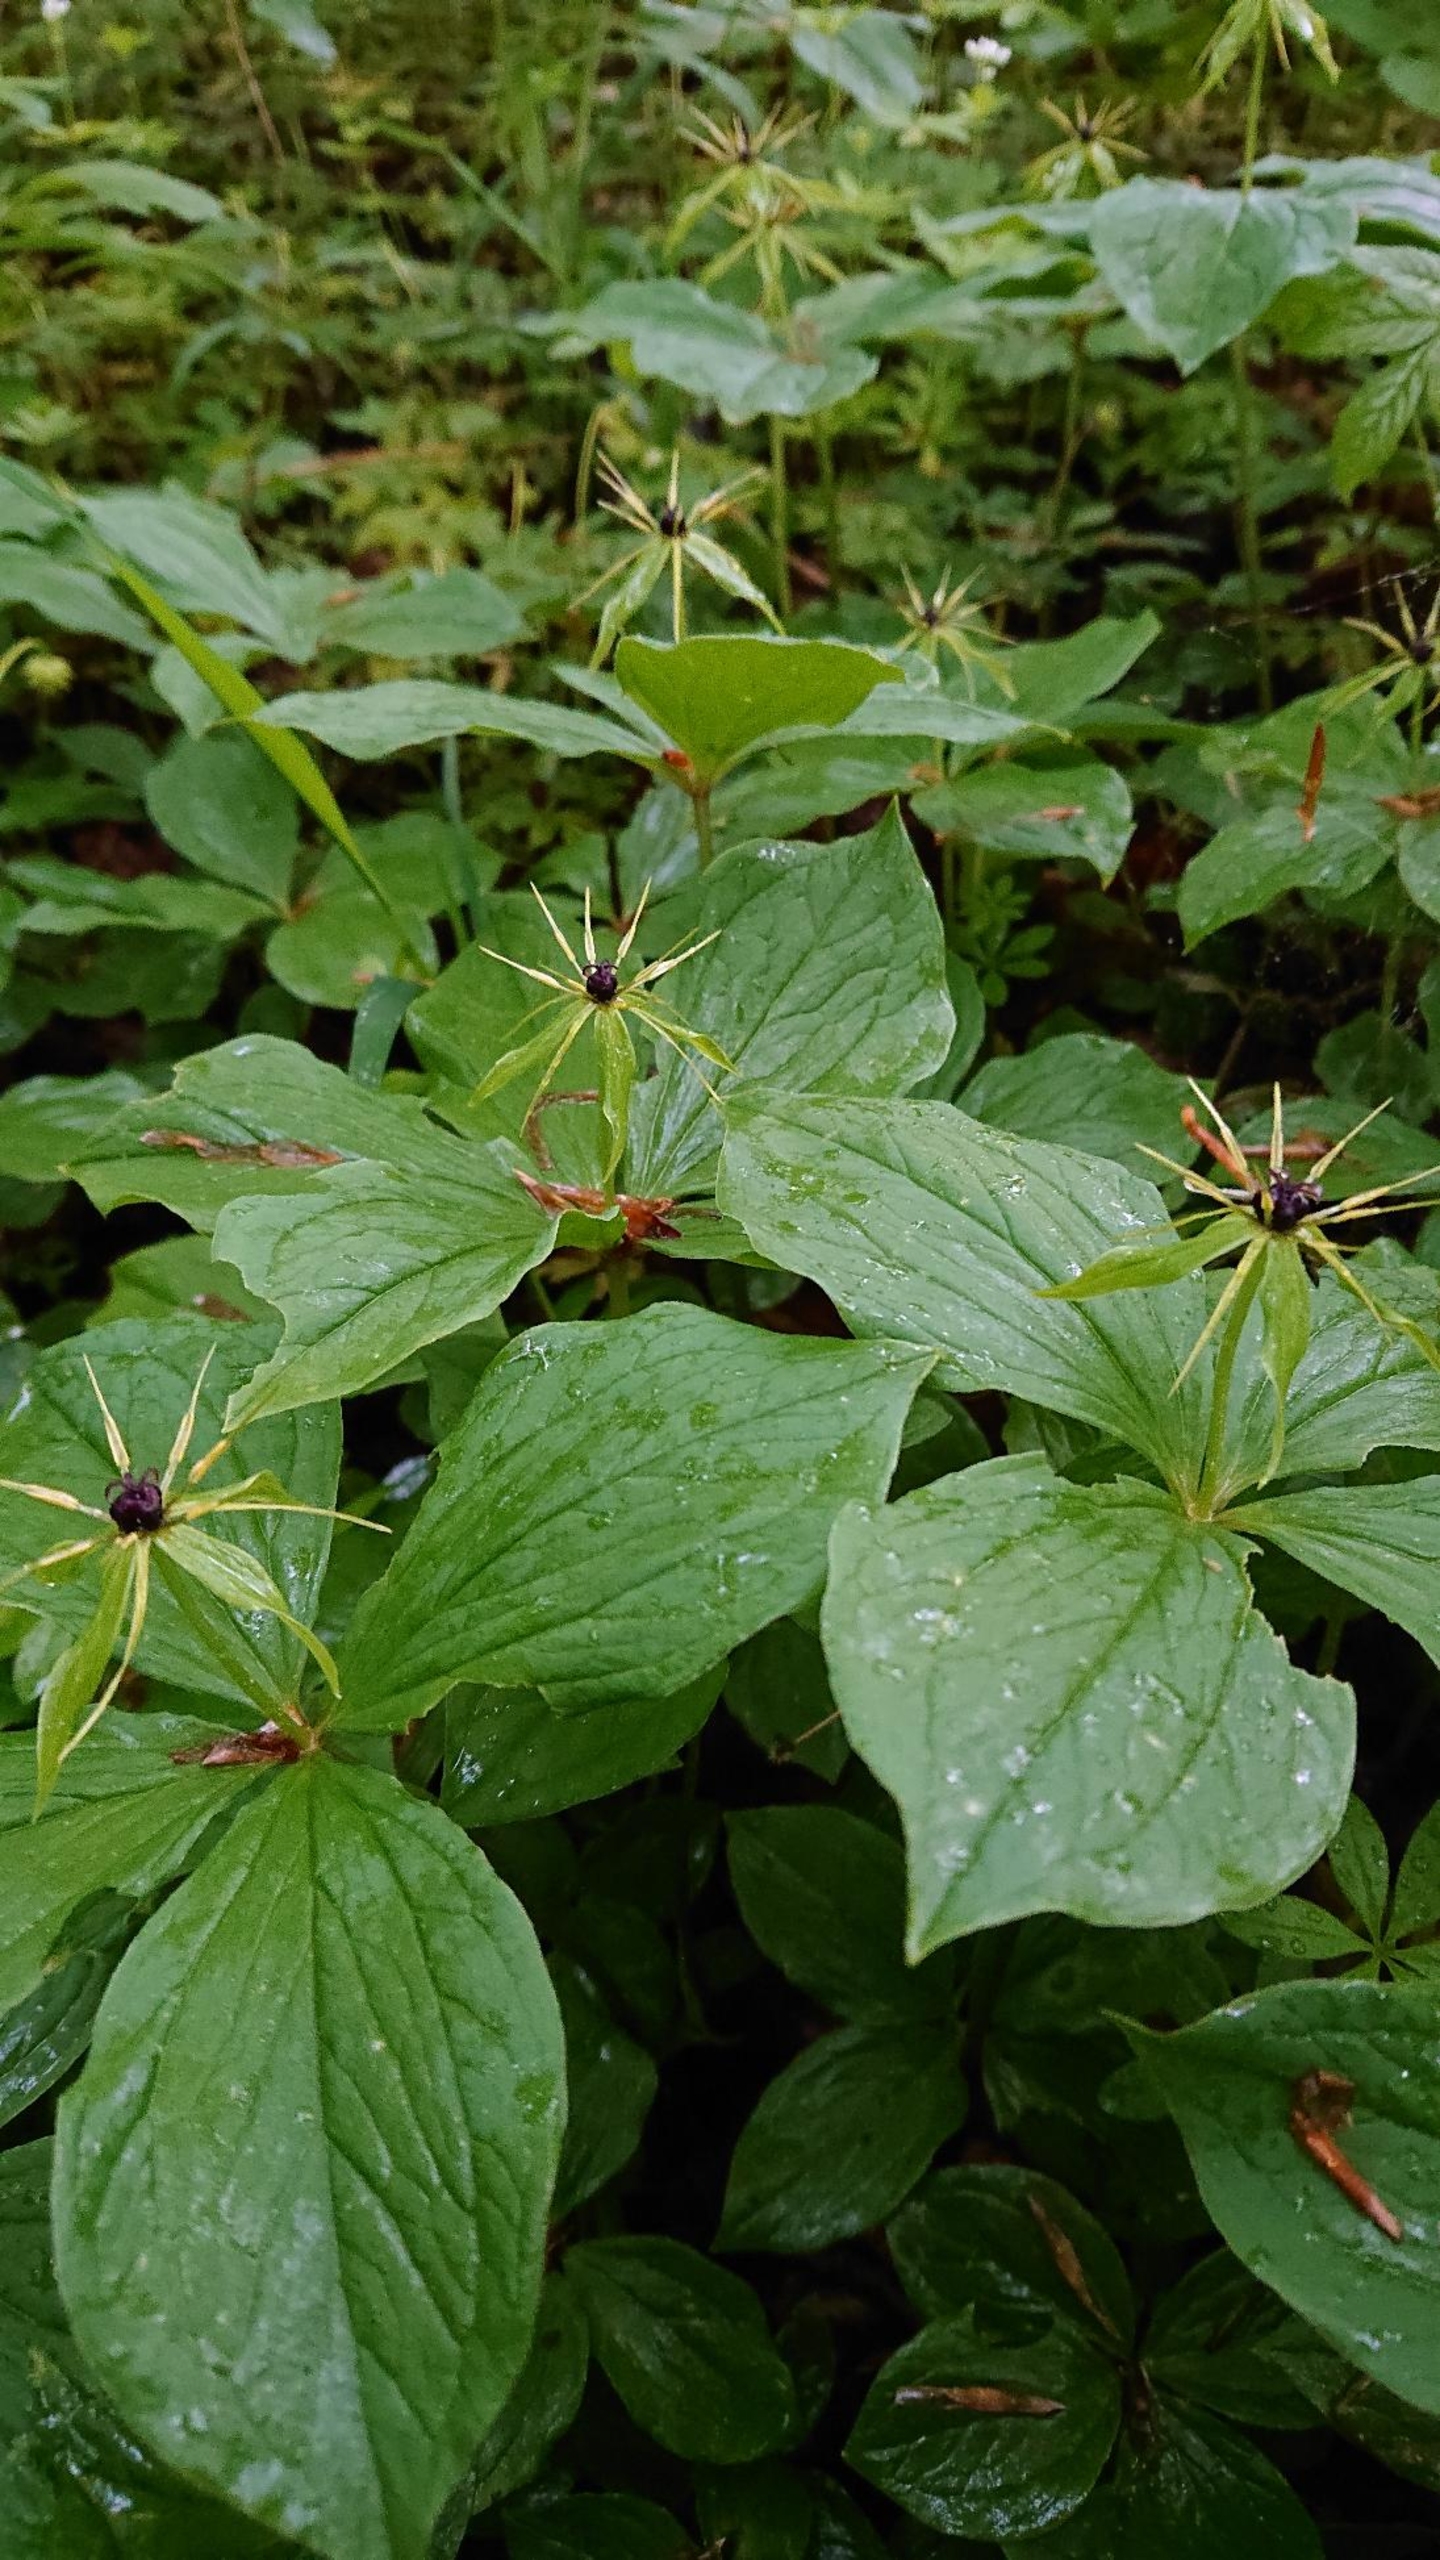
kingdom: Plantae
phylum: Tracheophyta
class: Liliopsida
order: Liliales
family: Melanthiaceae
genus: Paris
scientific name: Paris quadrifolia
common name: Firblad
